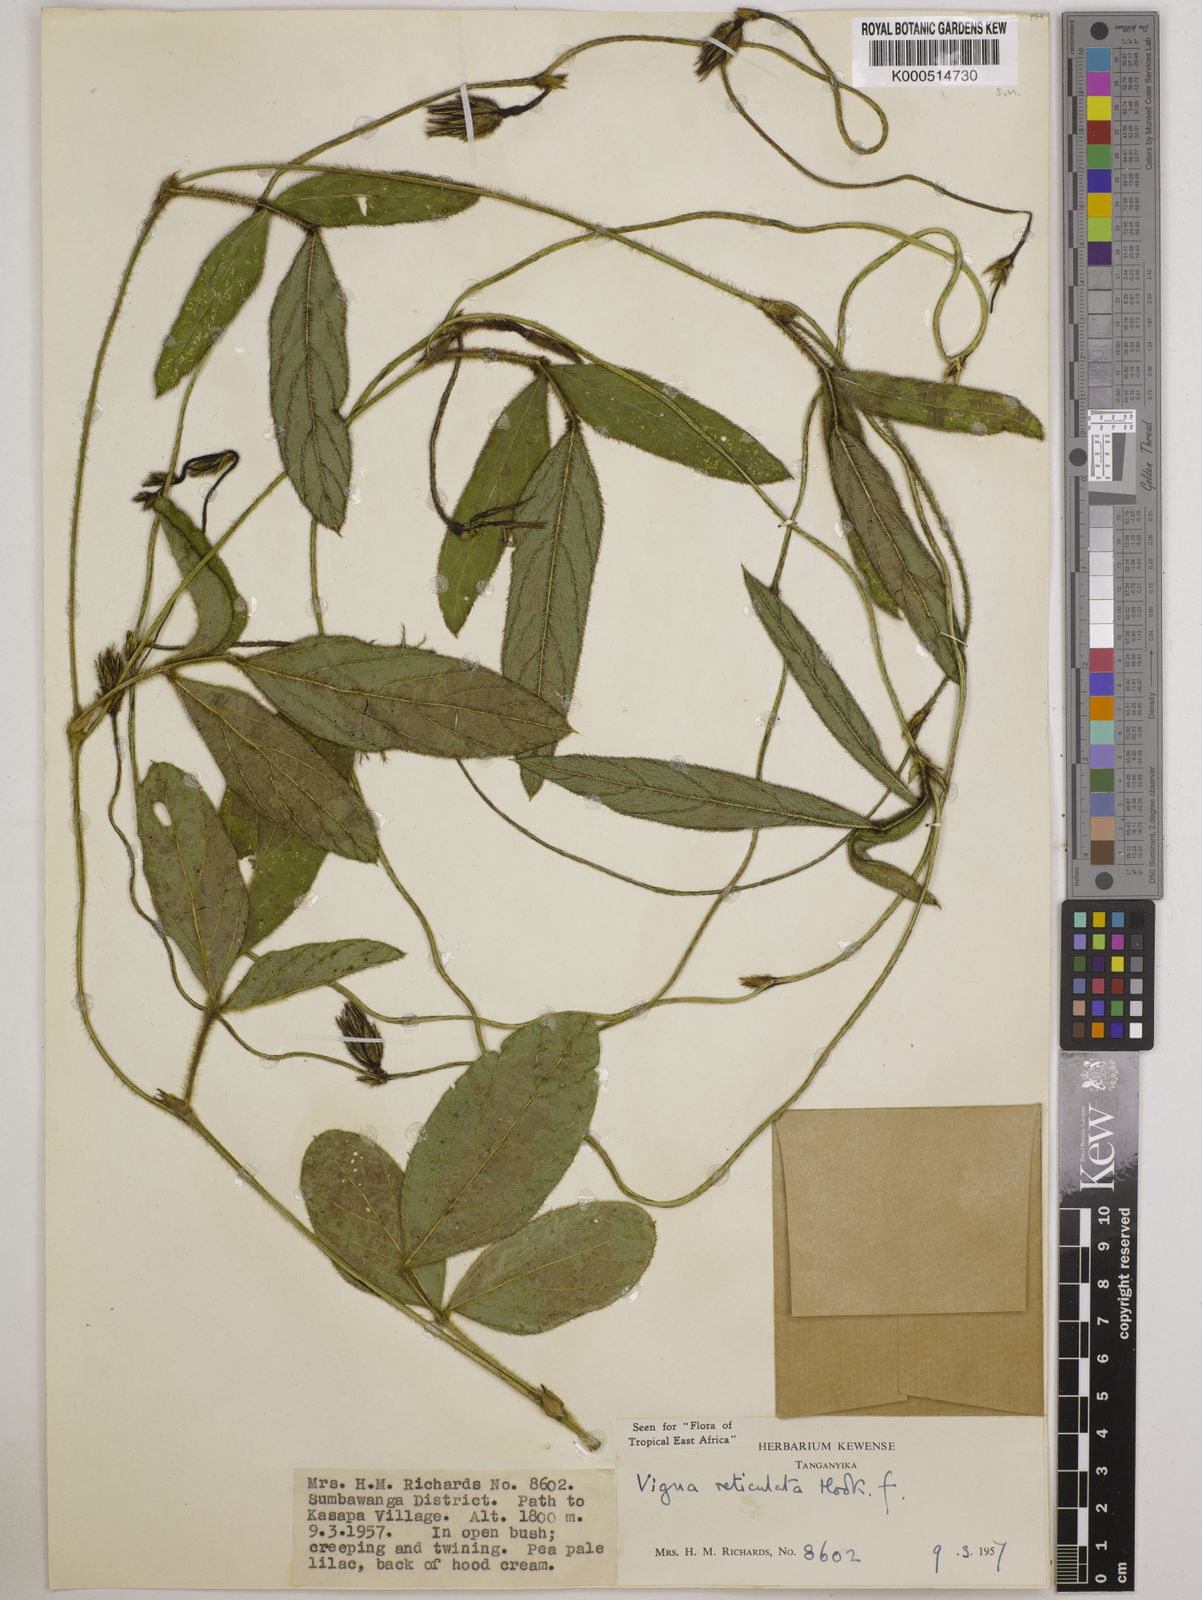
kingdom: Plantae
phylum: Tracheophyta
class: Magnoliopsida
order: Fabales
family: Fabaceae
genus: Vigna
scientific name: Vigna reticulata
